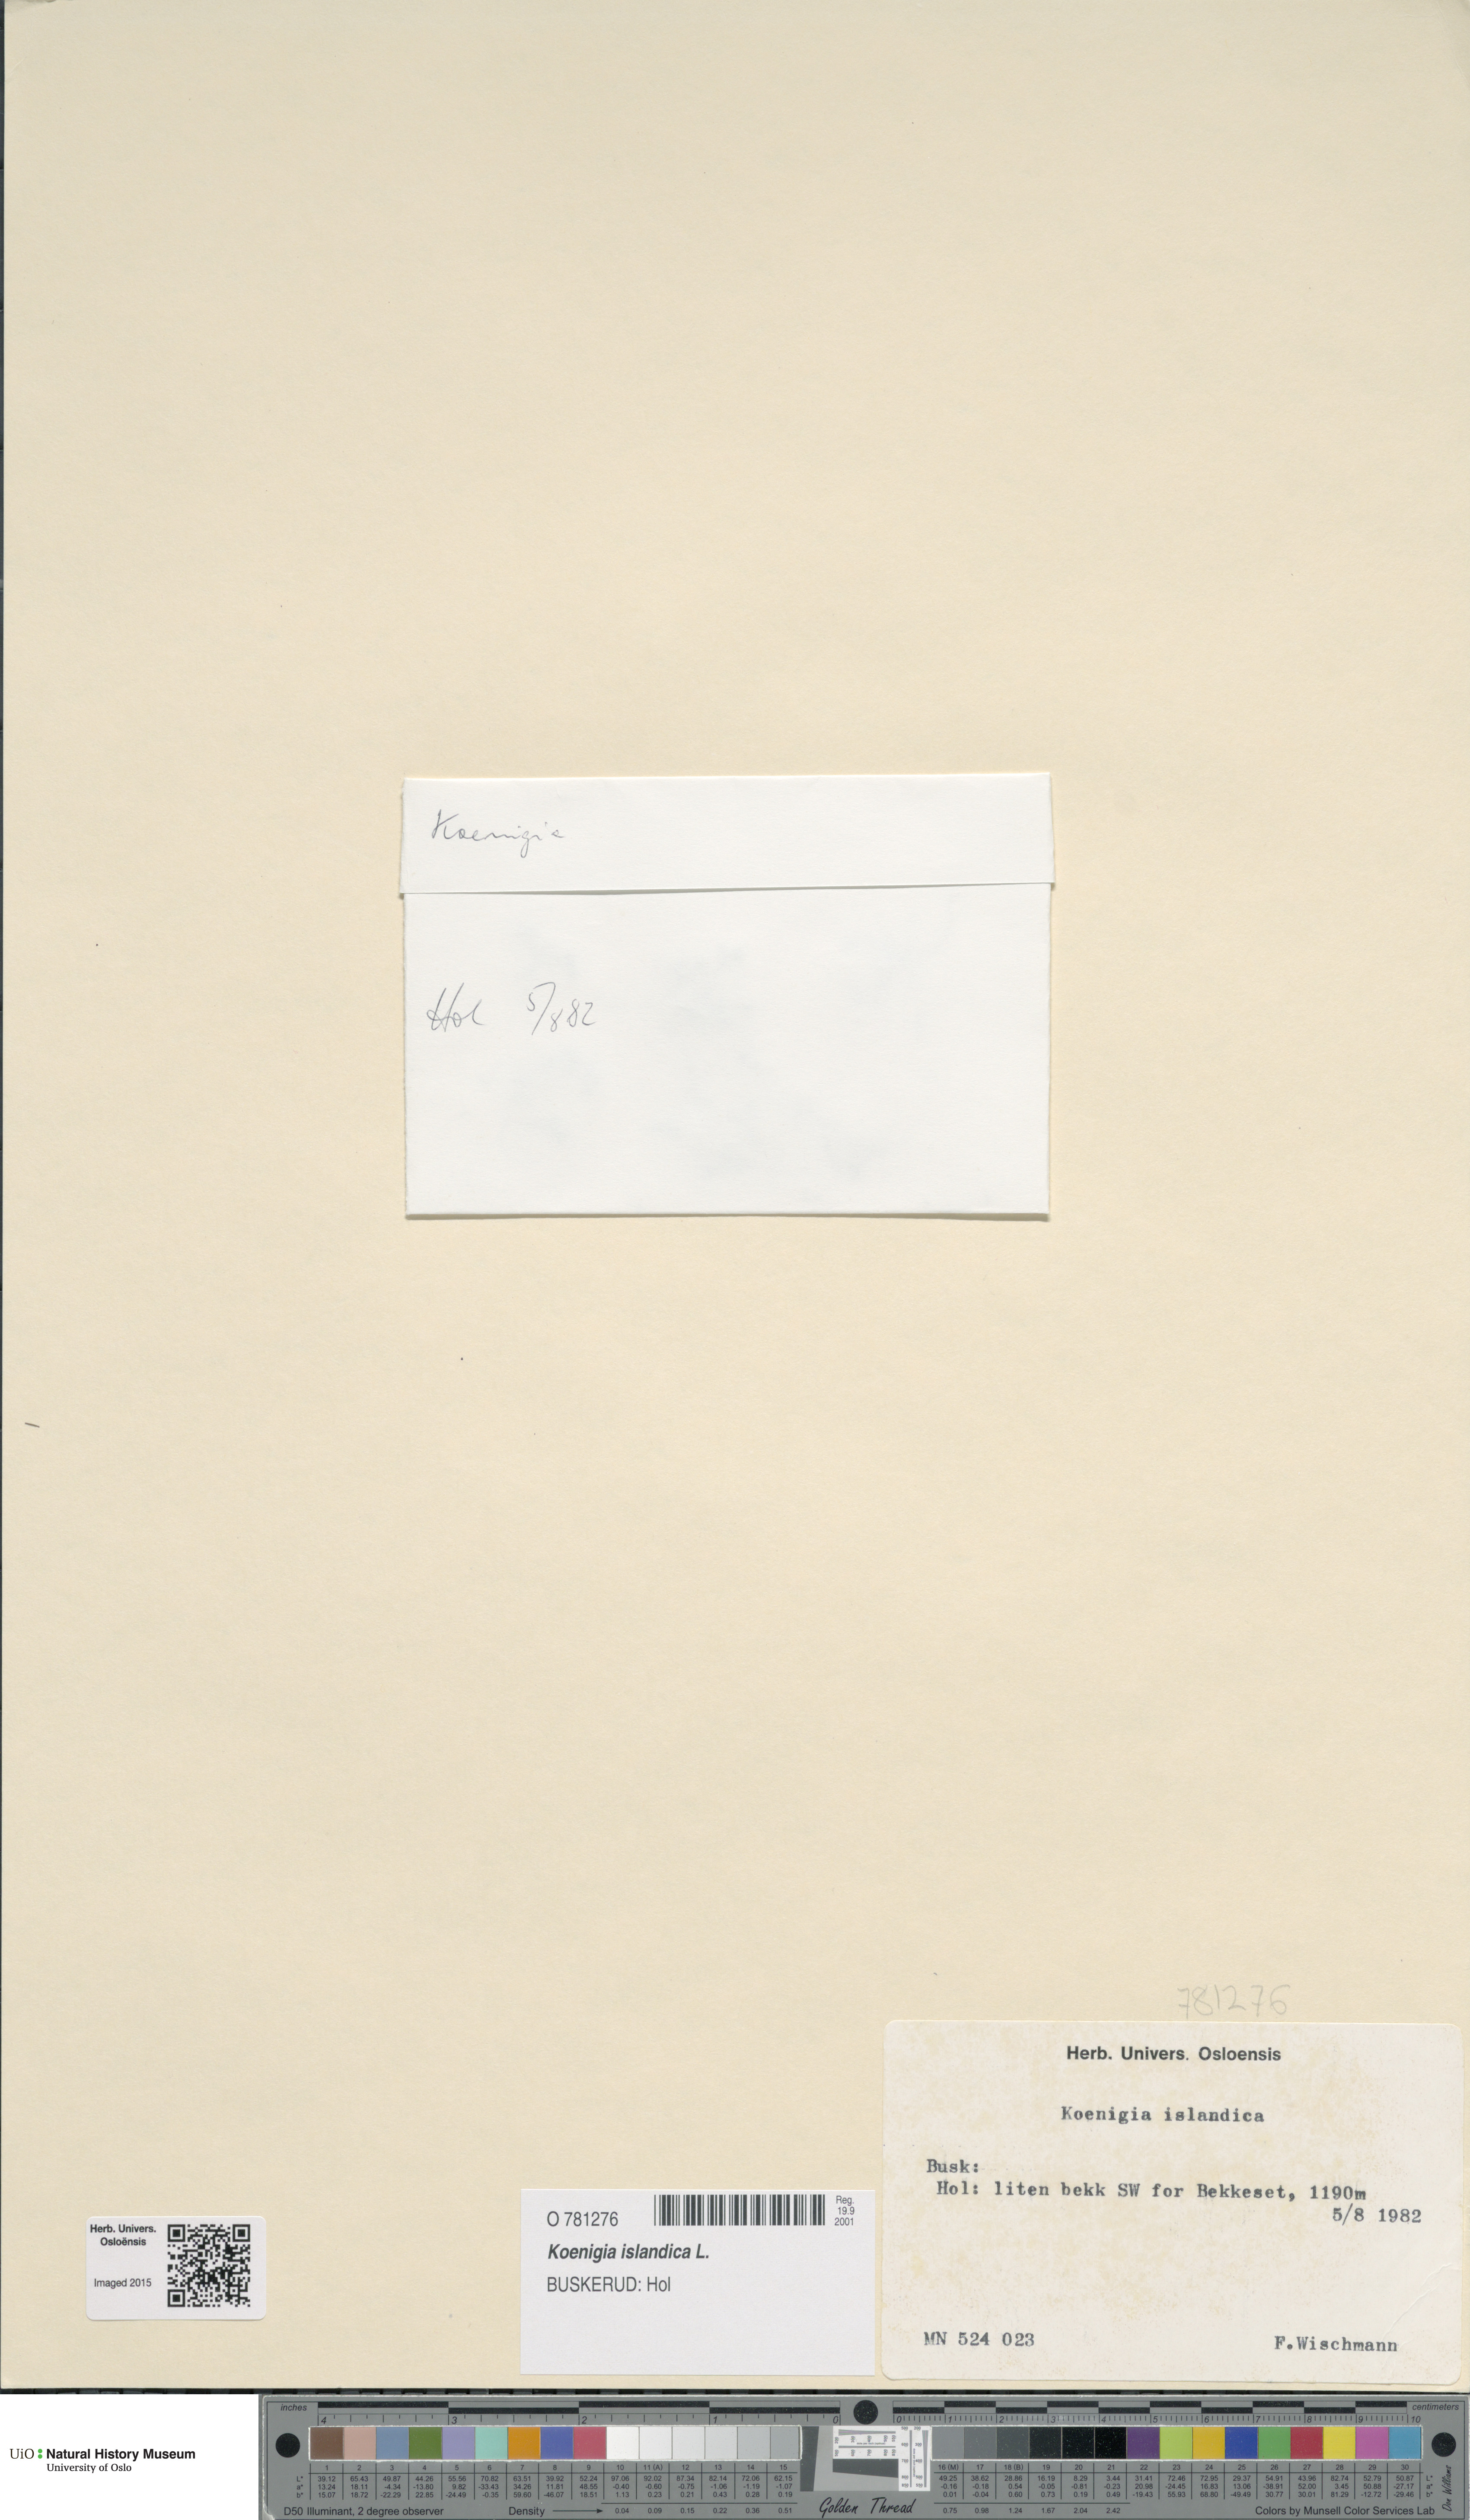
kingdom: Plantae
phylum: Tracheophyta
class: Magnoliopsida
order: Caryophyllales
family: Polygonaceae
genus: Koenigia
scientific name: Koenigia islandica
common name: Iceland-purslane
